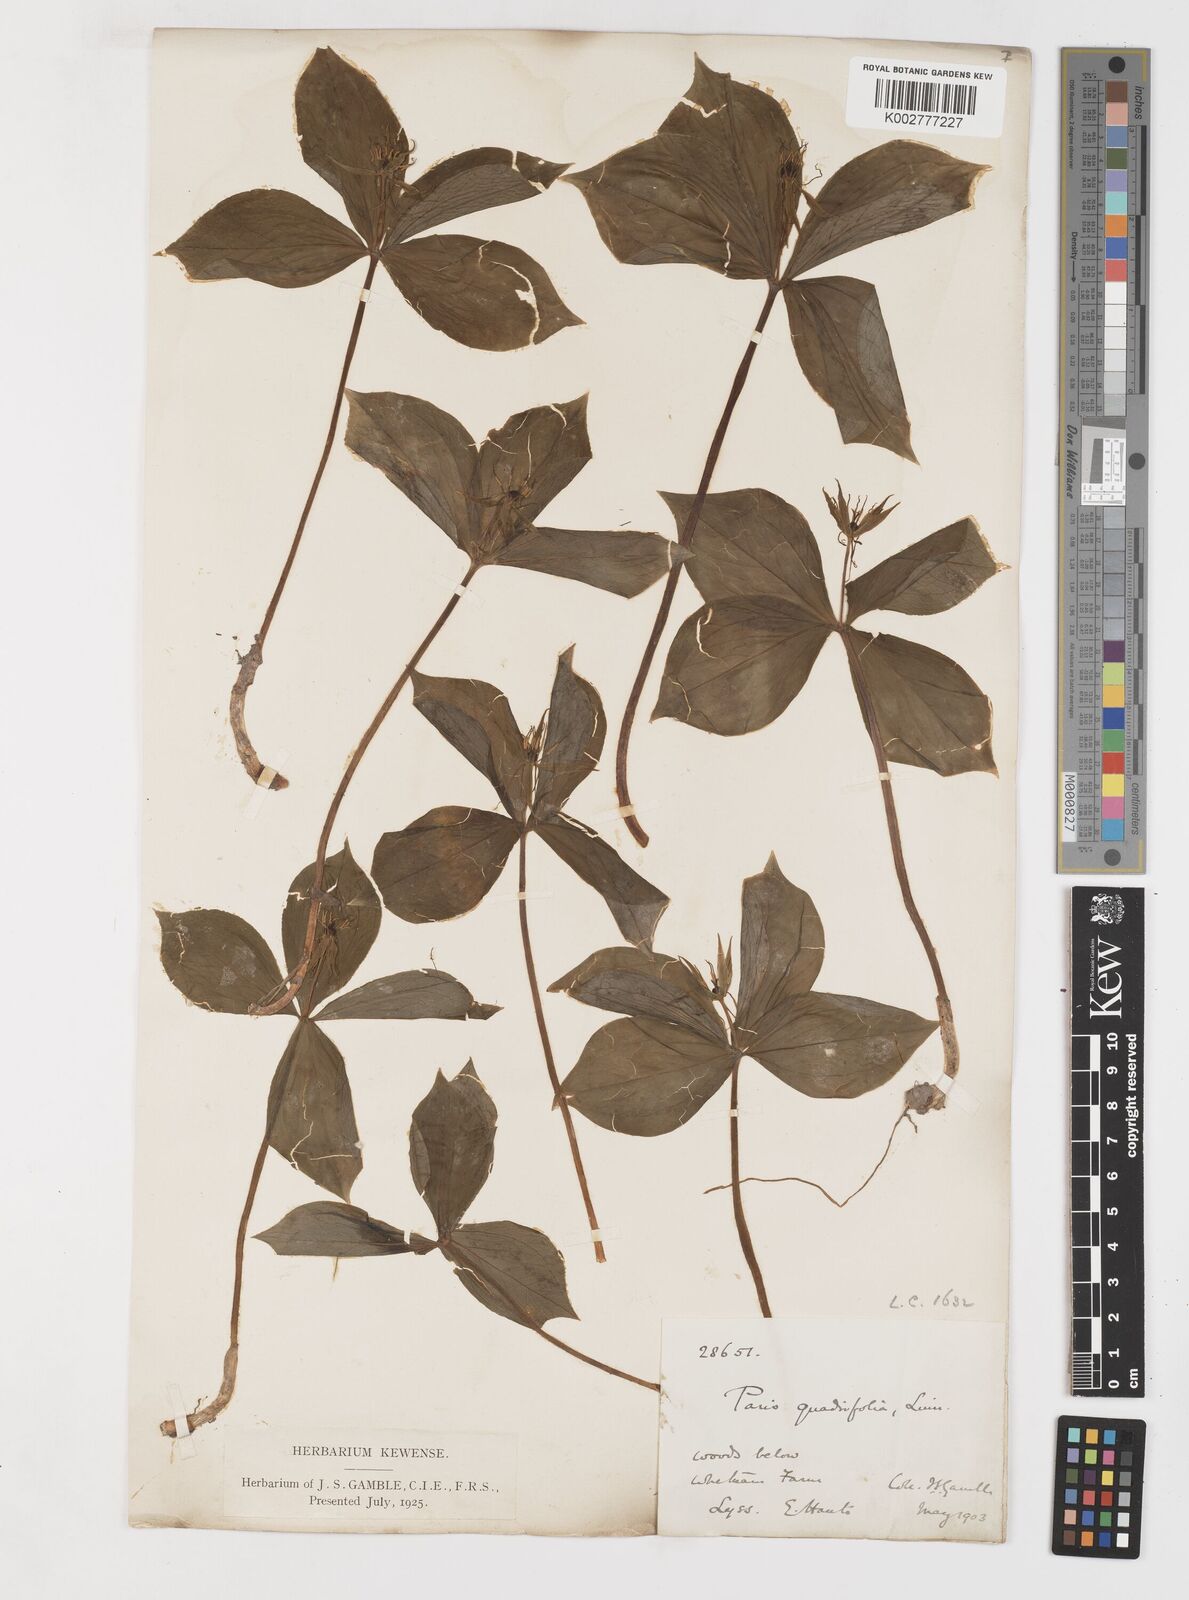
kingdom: Plantae
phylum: Tracheophyta
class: Liliopsida
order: Liliales
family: Melanthiaceae
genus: Paris
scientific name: Paris quadrifolia
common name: Herb-paris
